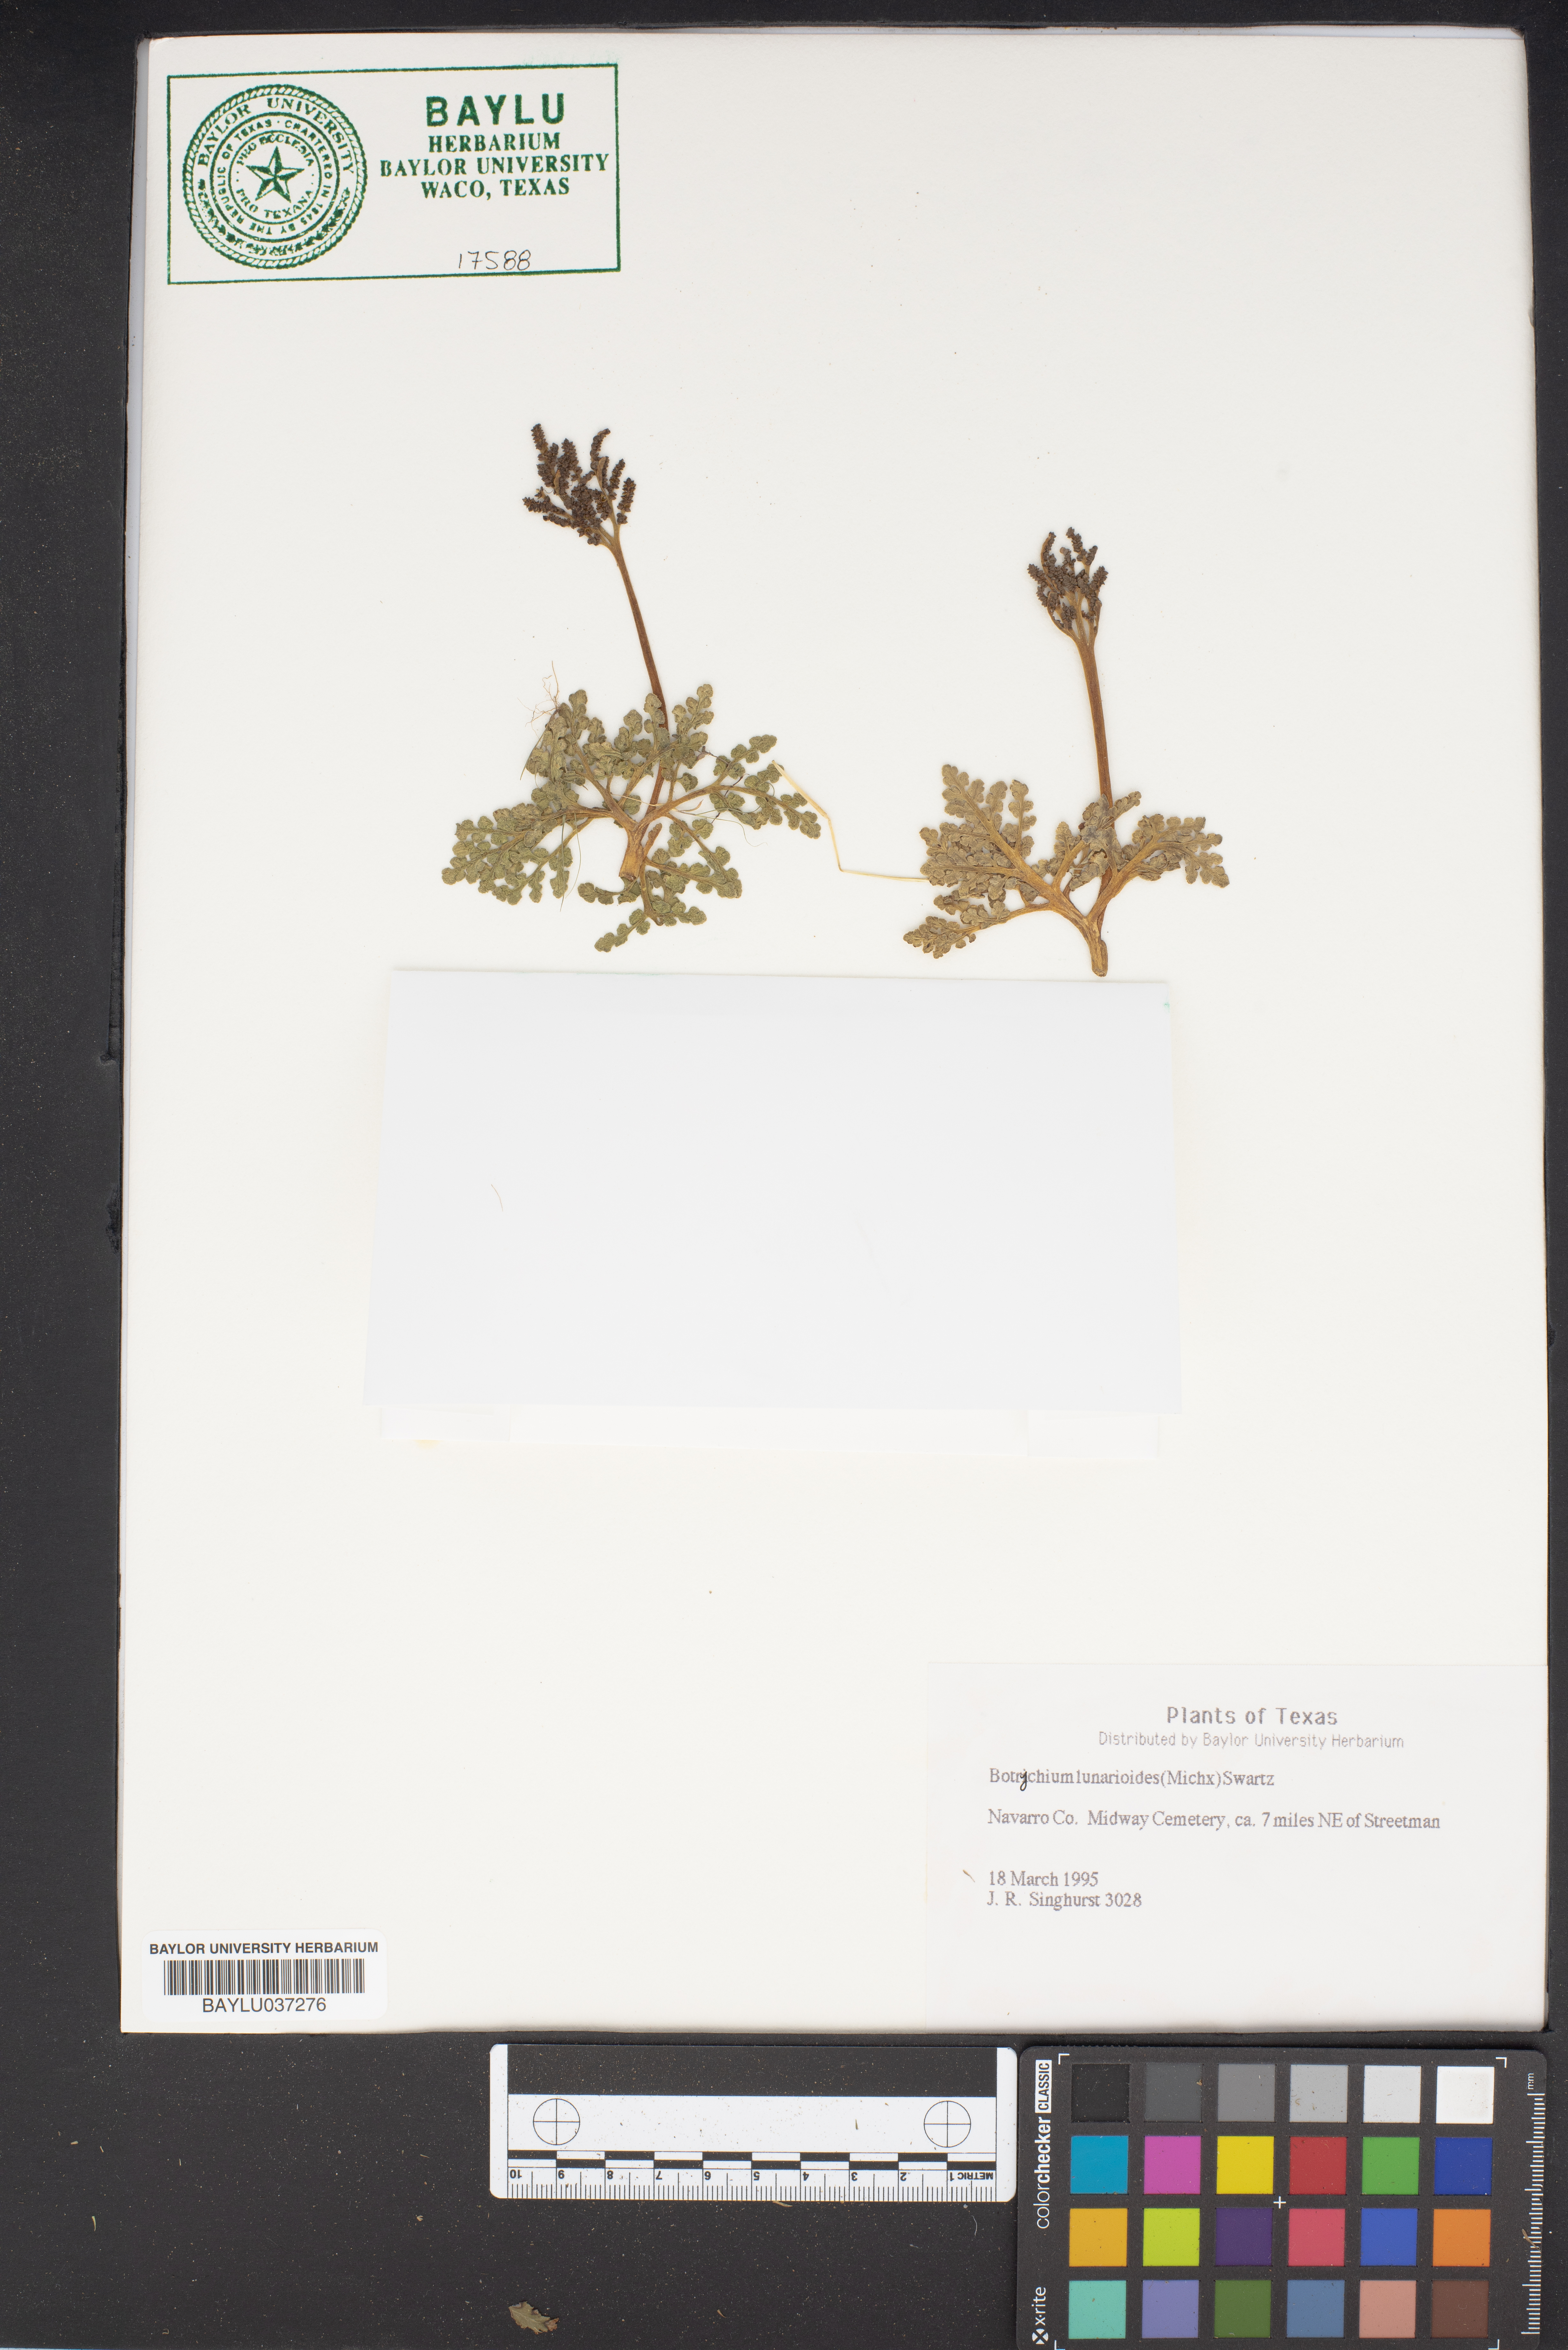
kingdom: Plantae
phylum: Tracheophyta
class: Polypodiopsida
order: Ophioglossales
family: Ophioglossaceae
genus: Sceptridium
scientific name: Sceptridium lunarioides
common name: Prostrate grapefern
